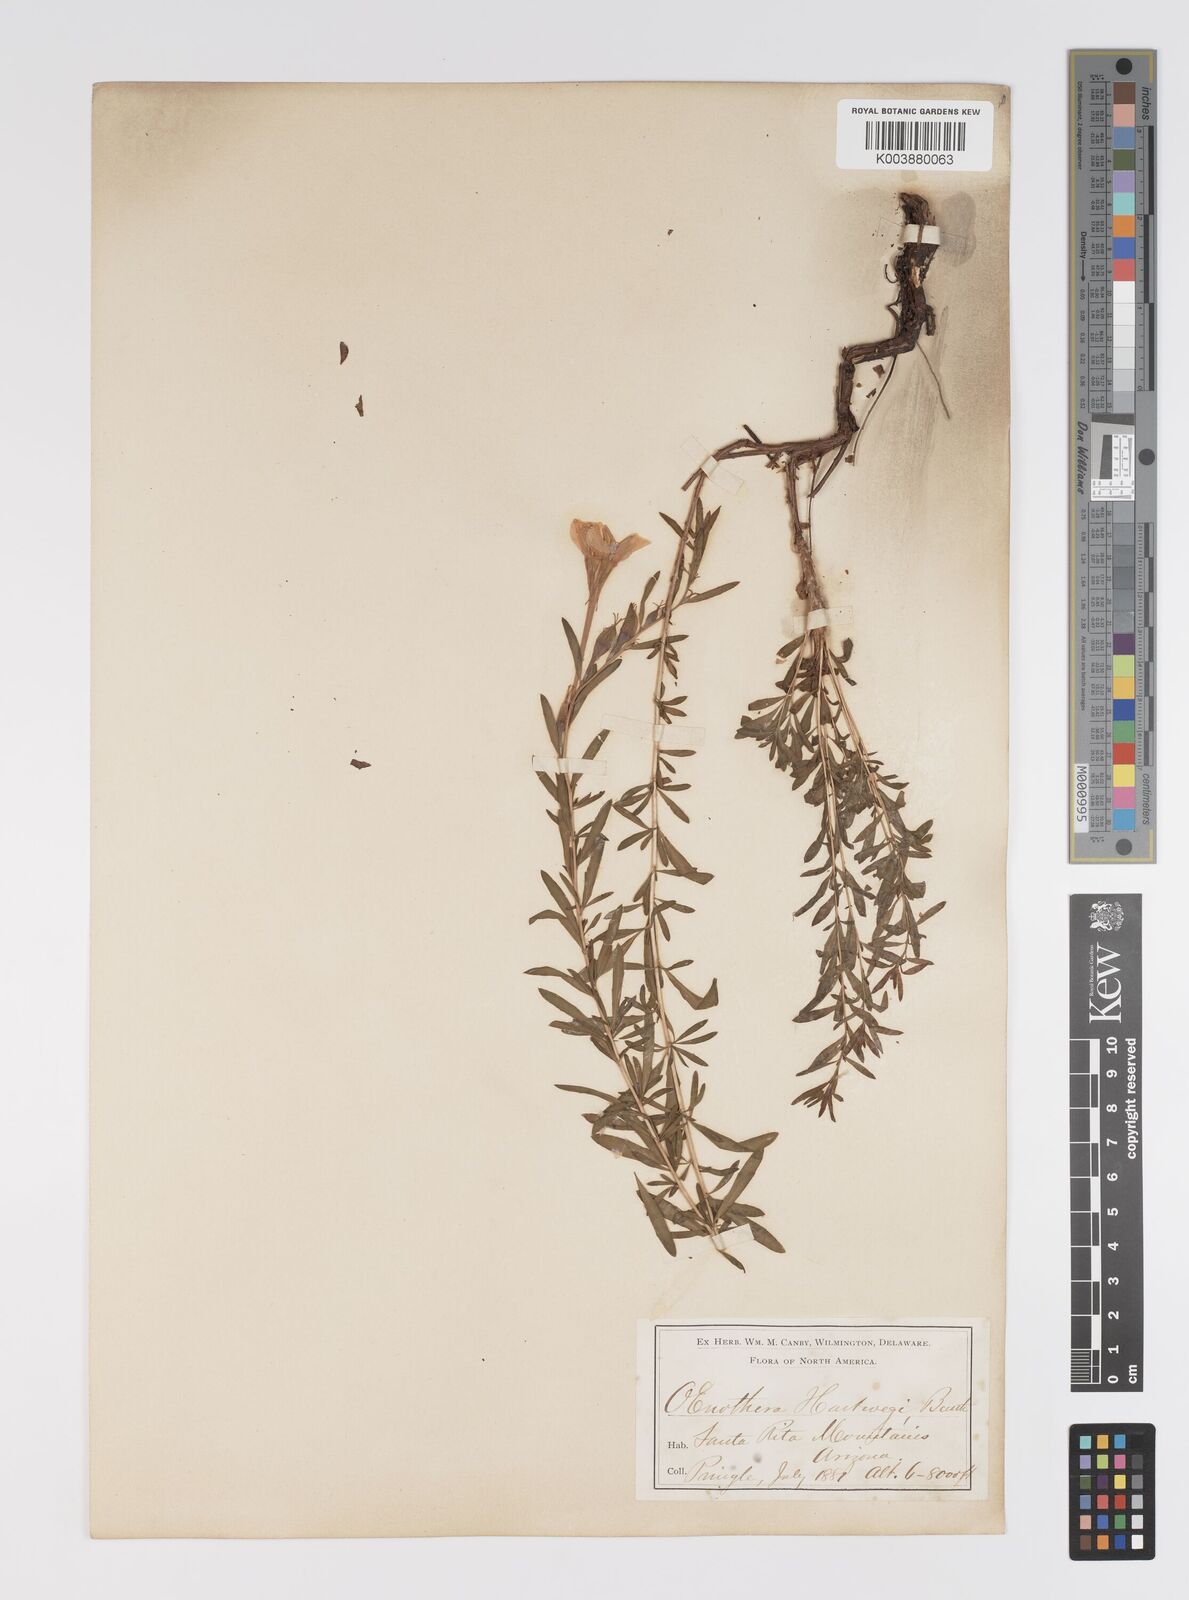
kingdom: Plantae
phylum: Tracheophyta
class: Magnoliopsida
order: Myrtales
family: Onagraceae
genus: Oenothera
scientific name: Oenothera hartwegii
